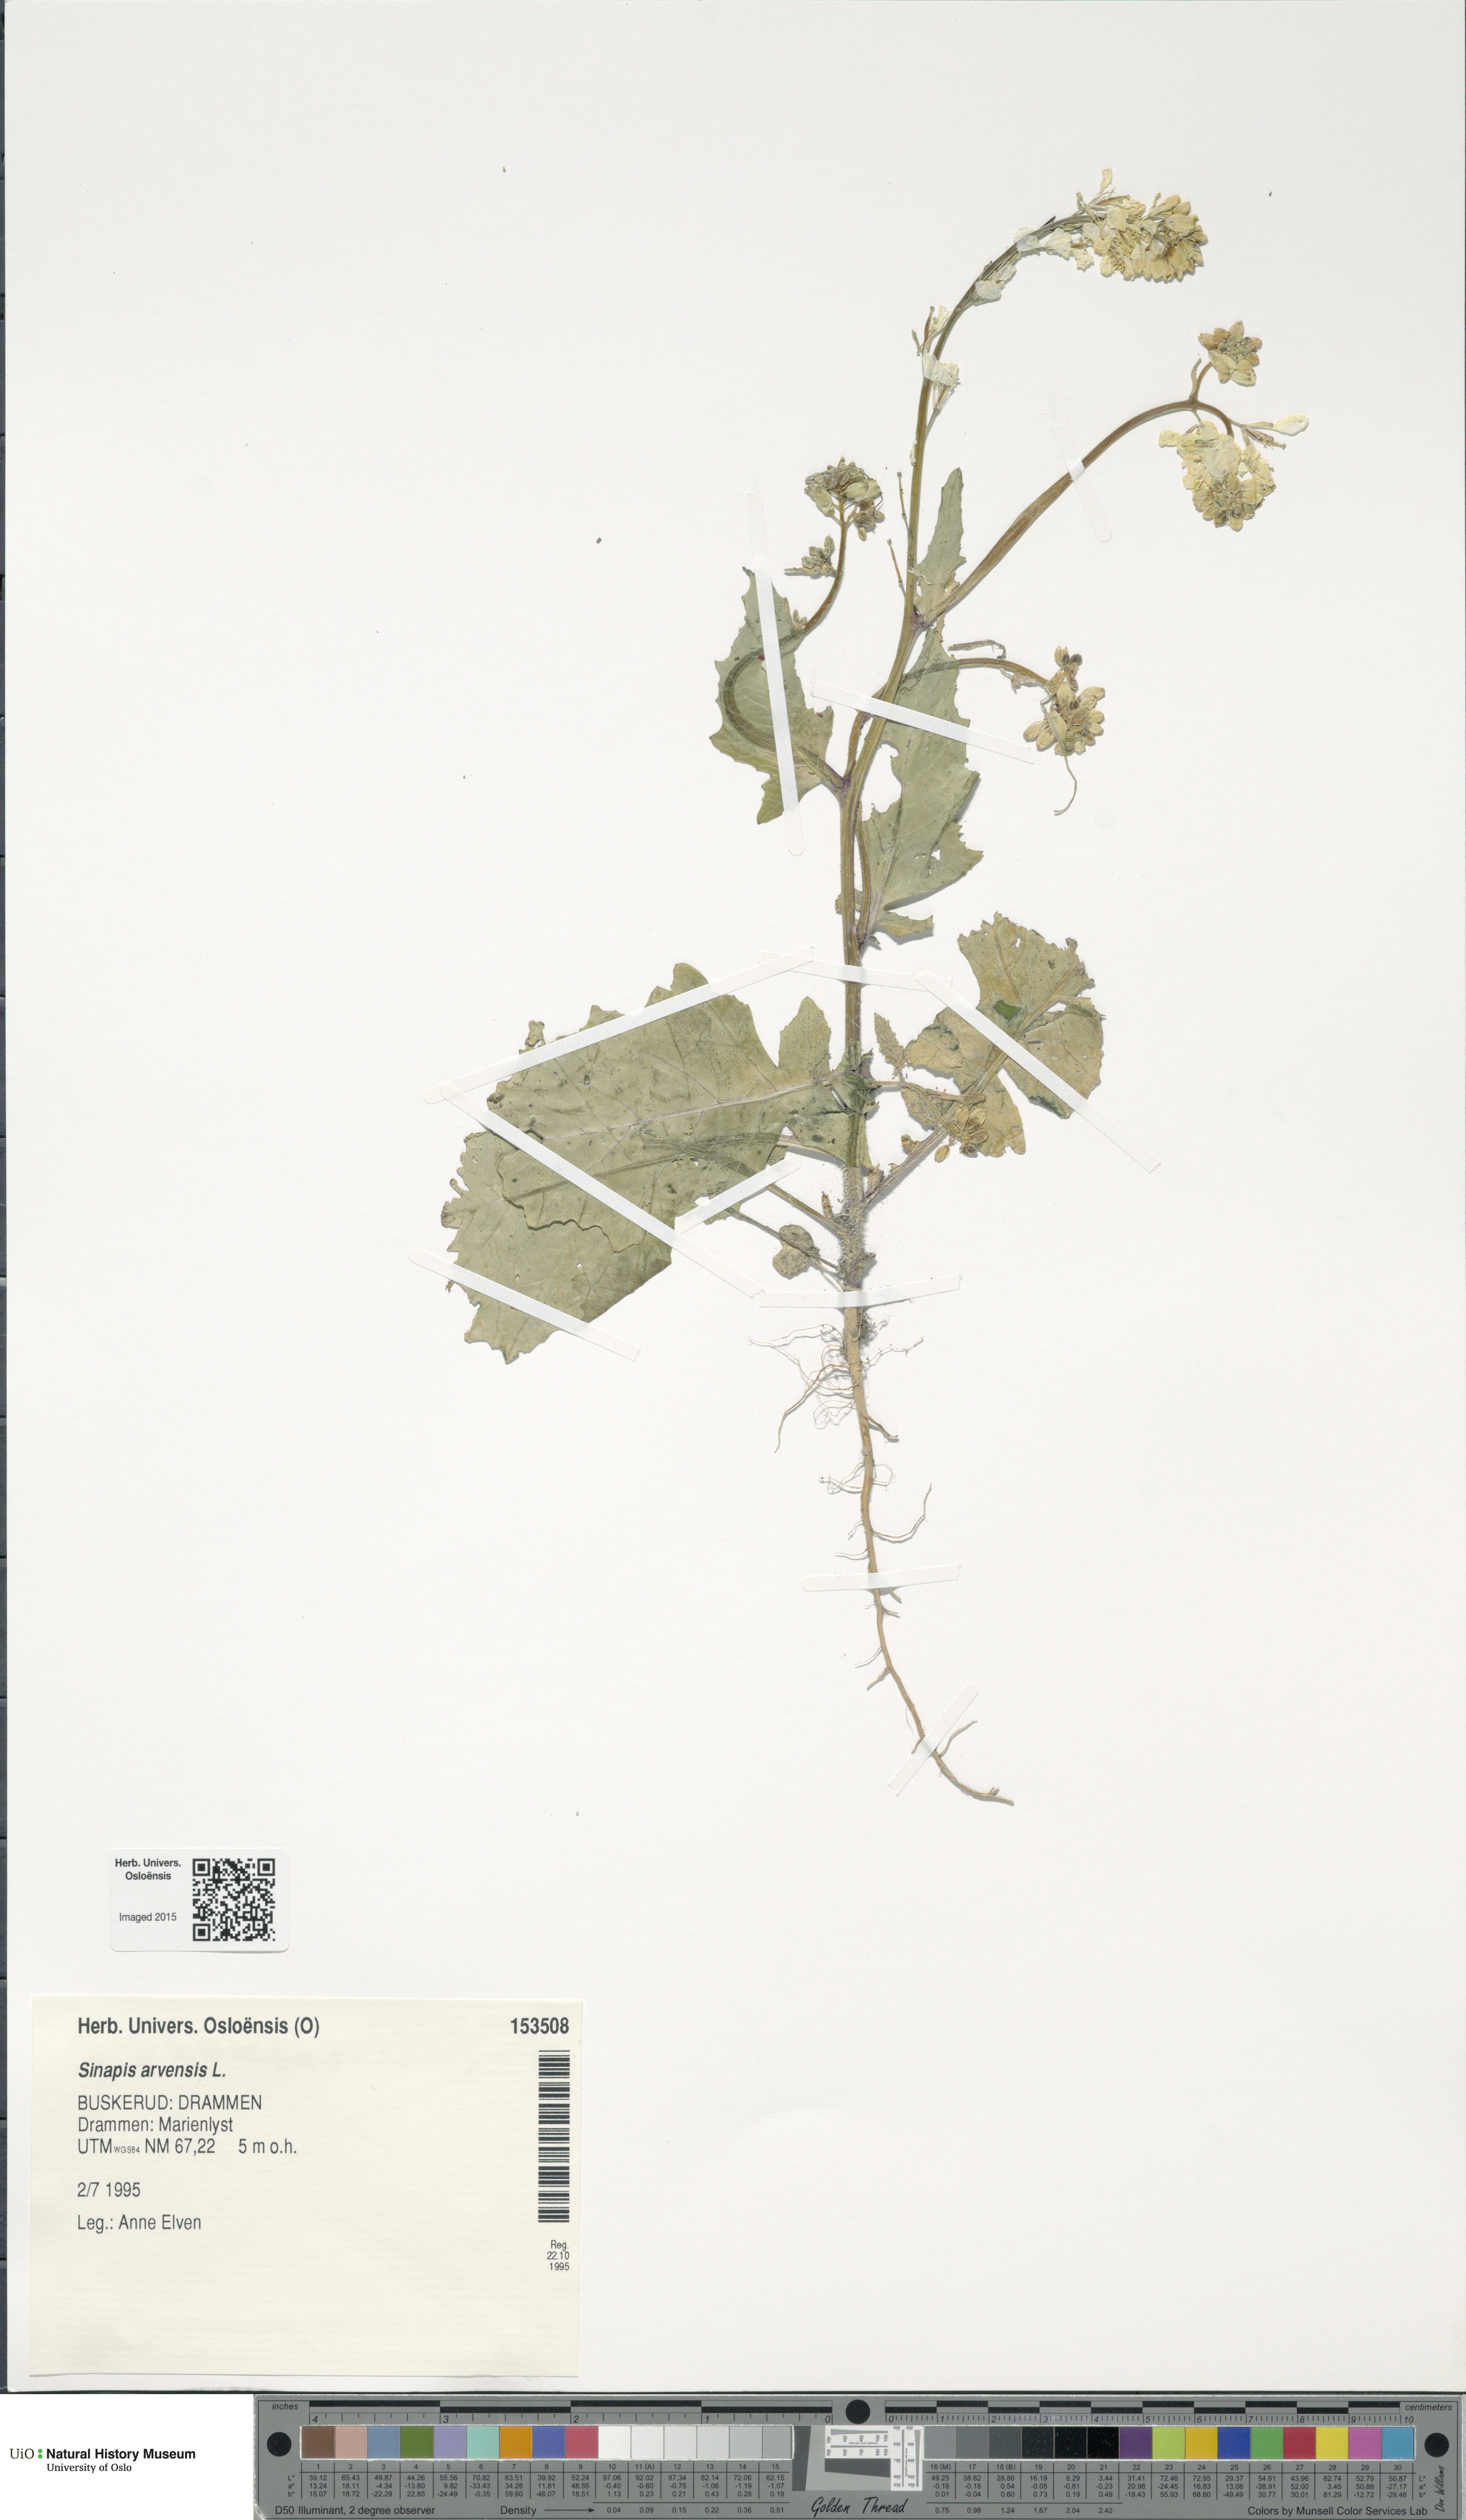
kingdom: Plantae
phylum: Tracheophyta
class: Magnoliopsida
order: Brassicales
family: Brassicaceae
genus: Sinapis
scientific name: Sinapis arvensis
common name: Charlock
